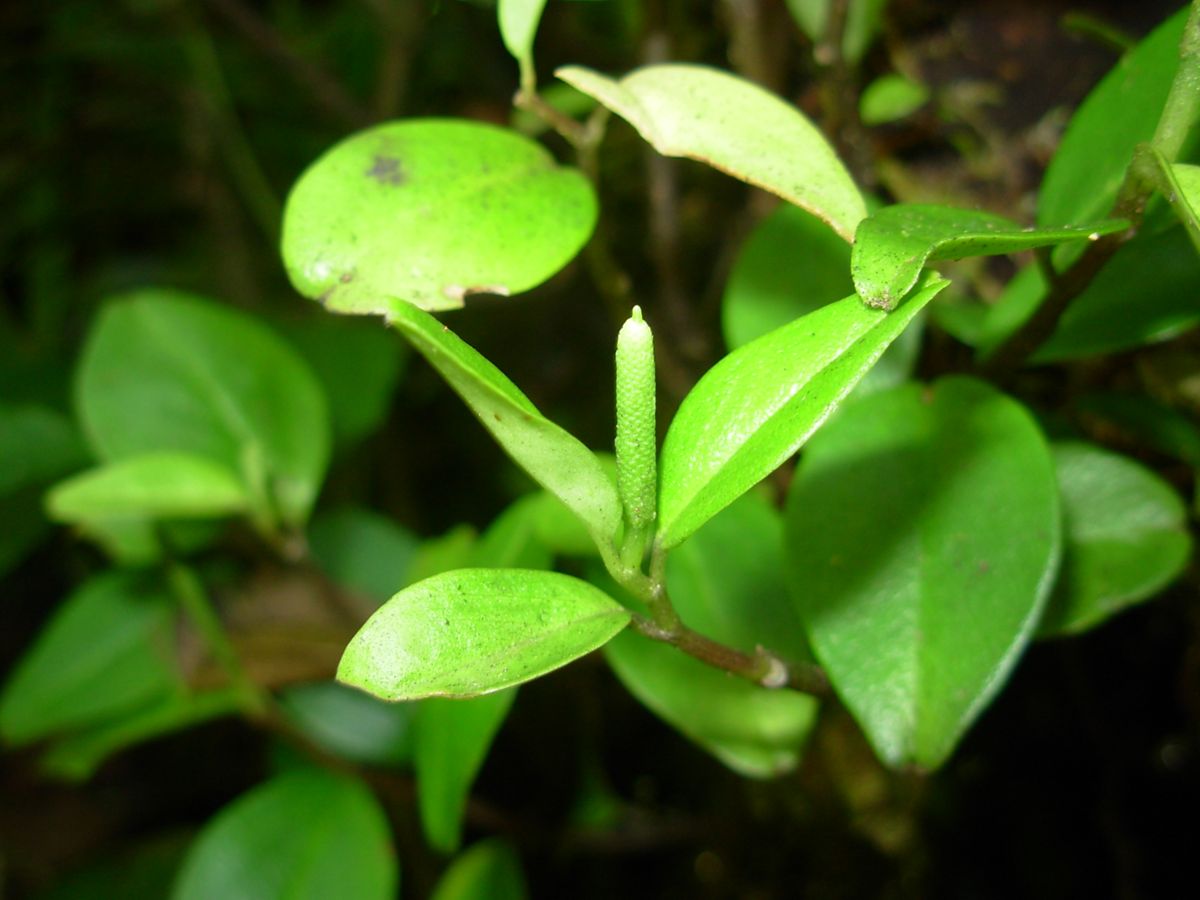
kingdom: Plantae
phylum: Tracheophyta
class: Magnoliopsida
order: Piperales
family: Piperaceae
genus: Peperomia
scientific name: Peperomia
